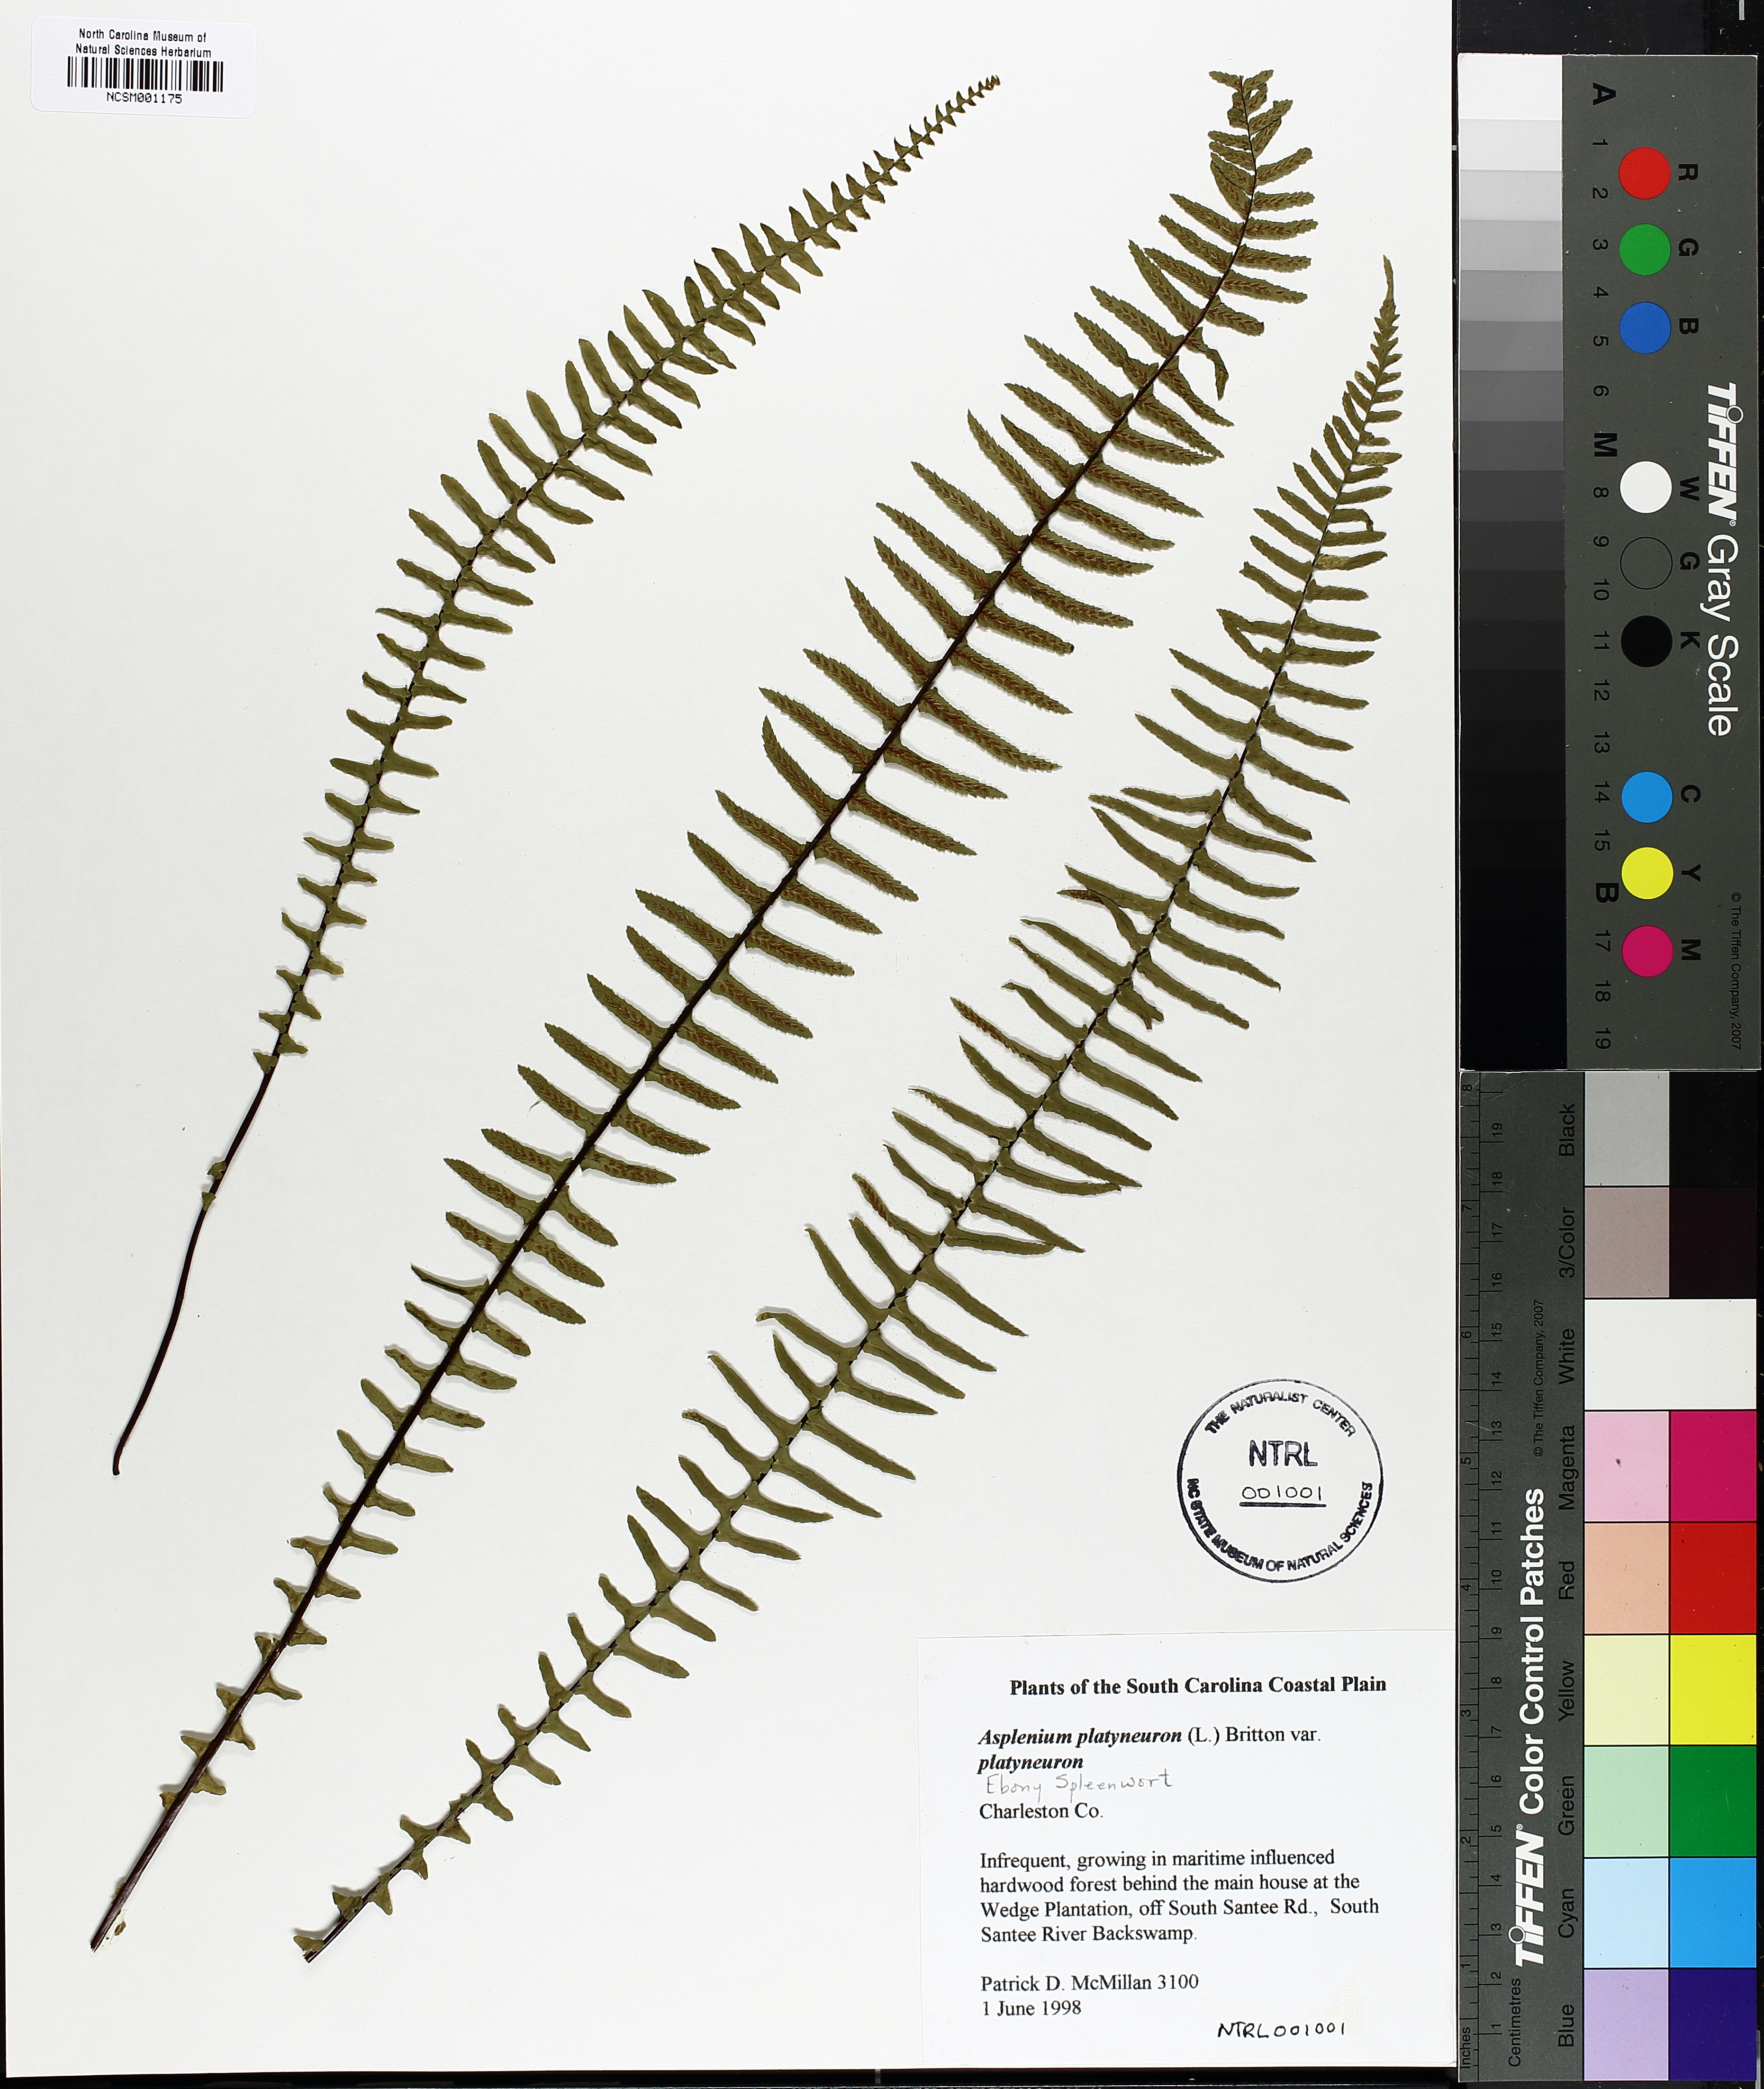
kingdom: Plantae
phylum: Tracheophyta
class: Polypodiopsida
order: Polypodiales
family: Aspleniaceae
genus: Asplenium
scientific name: Asplenium platyneuron
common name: Ebony spleenwort
